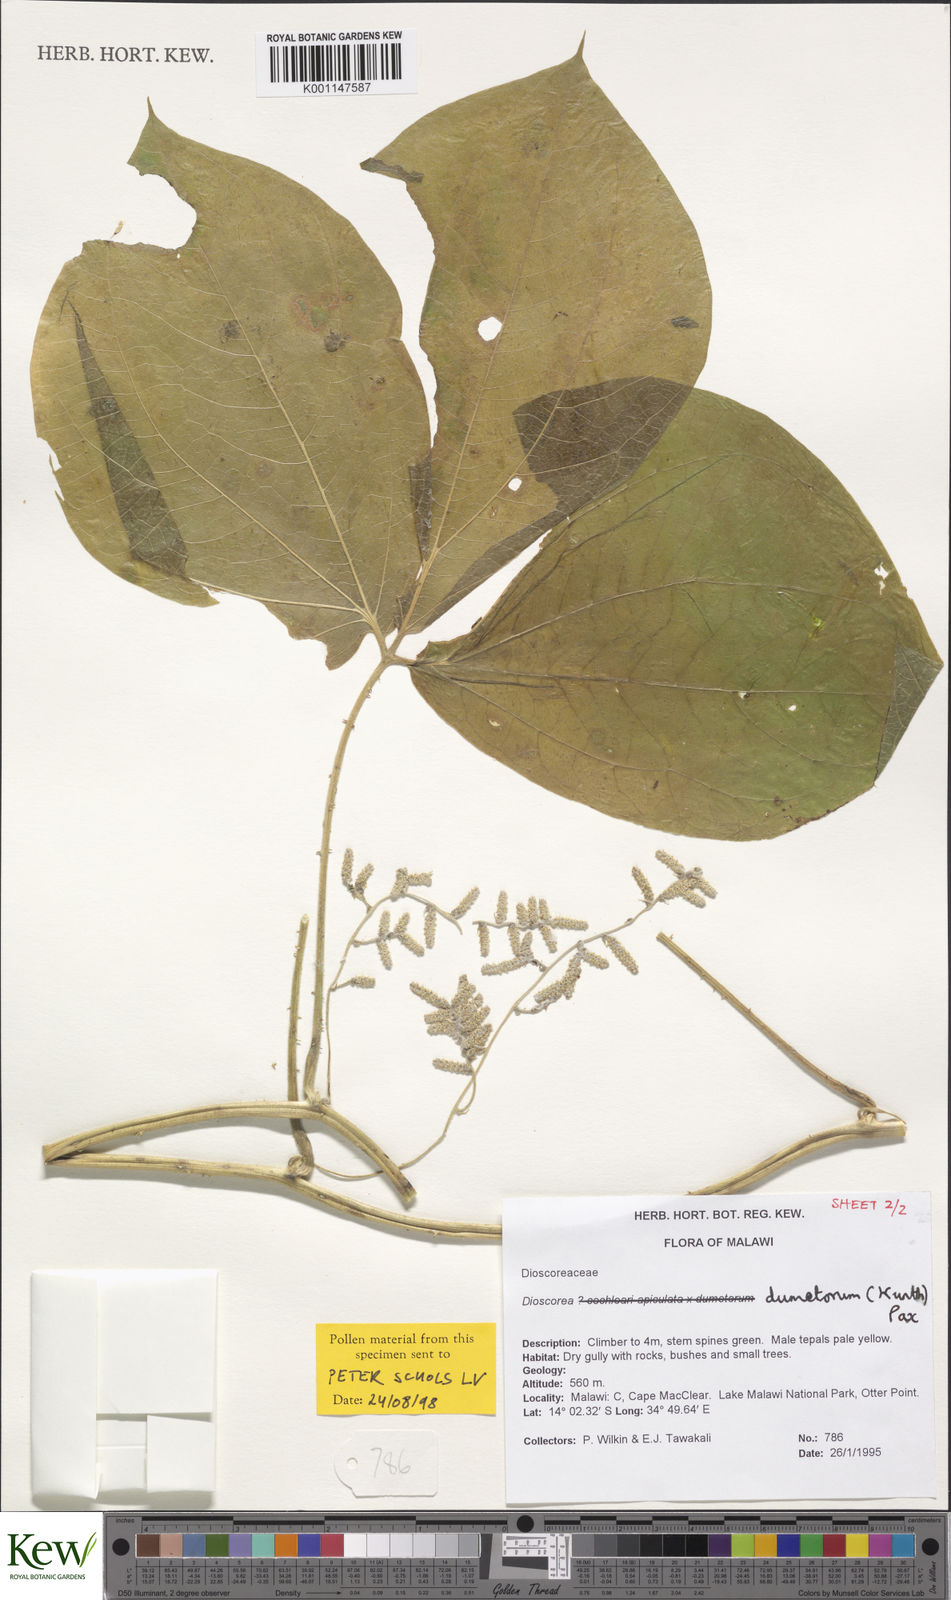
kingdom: Plantae
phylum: Tracheophyta
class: Liliopsida
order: Dioscoreales
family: Dioscoreaceae
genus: Dioscorea
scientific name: Dioscorea dumetorum
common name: African bitter yam
